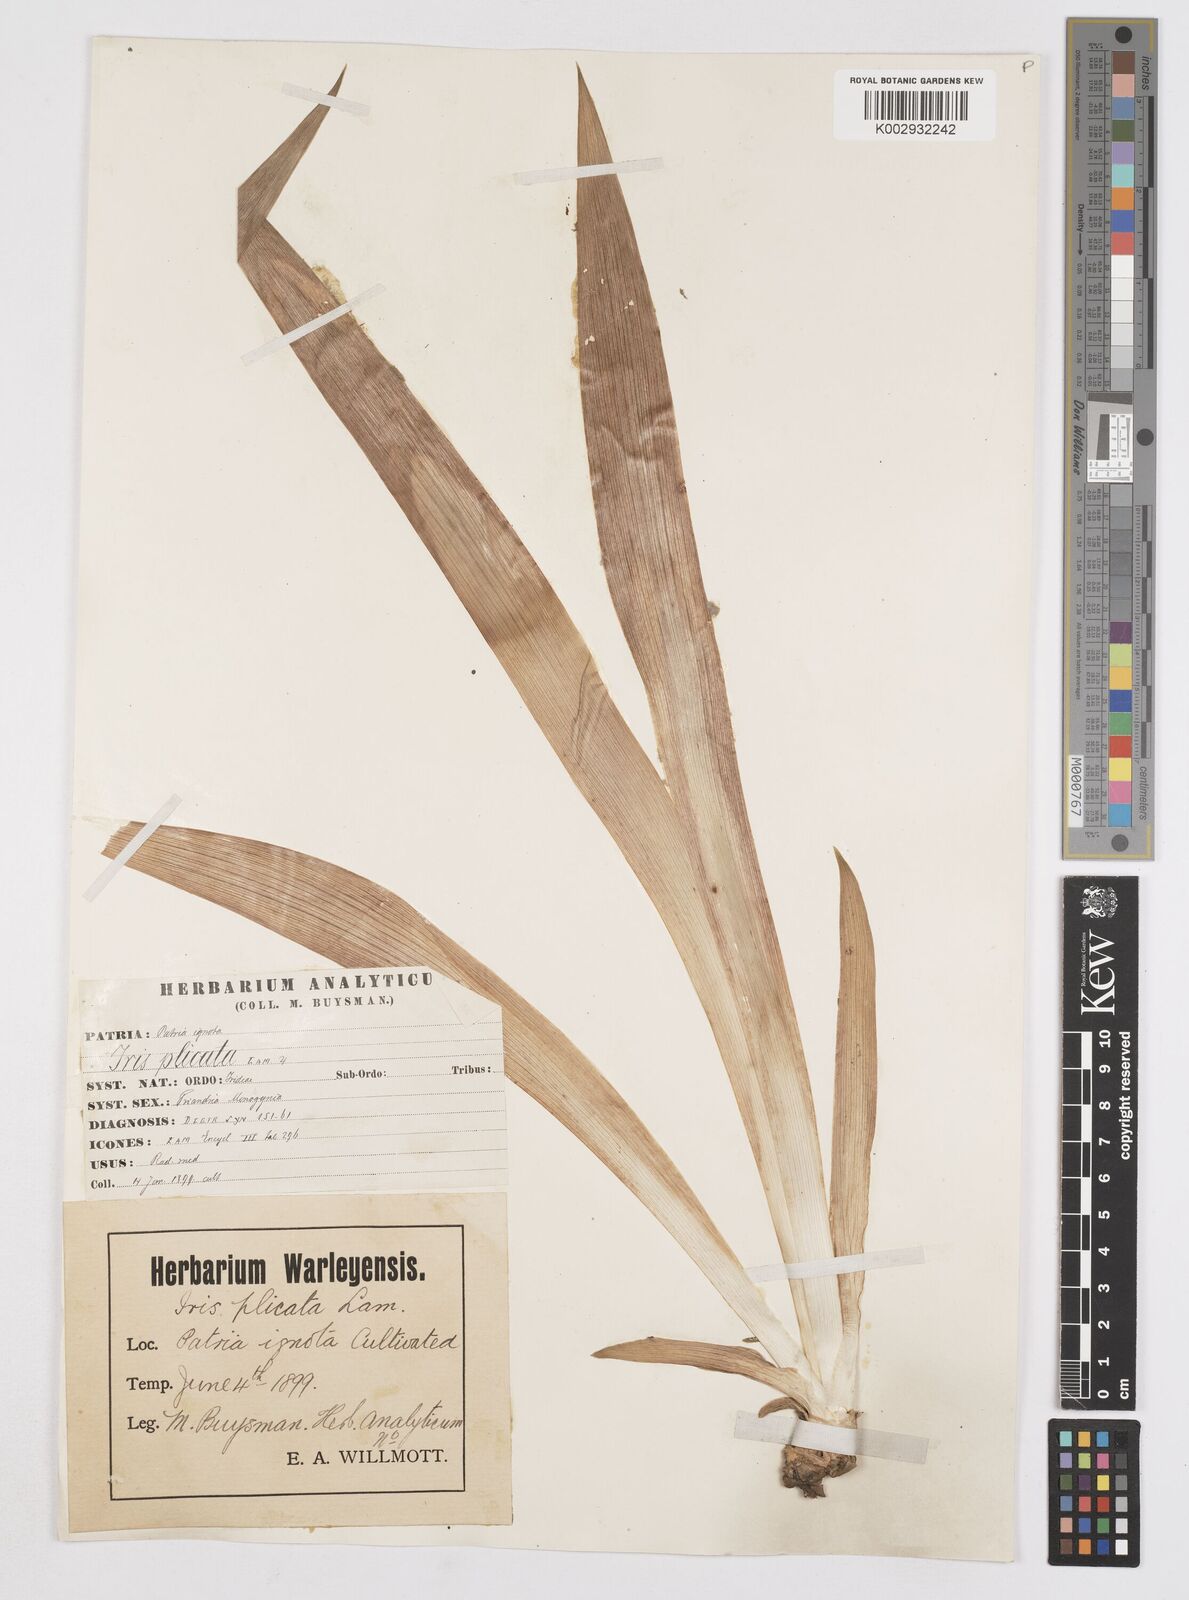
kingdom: Plantae
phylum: Tracheophyta
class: Liliopsida
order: Asparagales
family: Iridaceae
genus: Iris
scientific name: Iris germanica
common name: German iris
